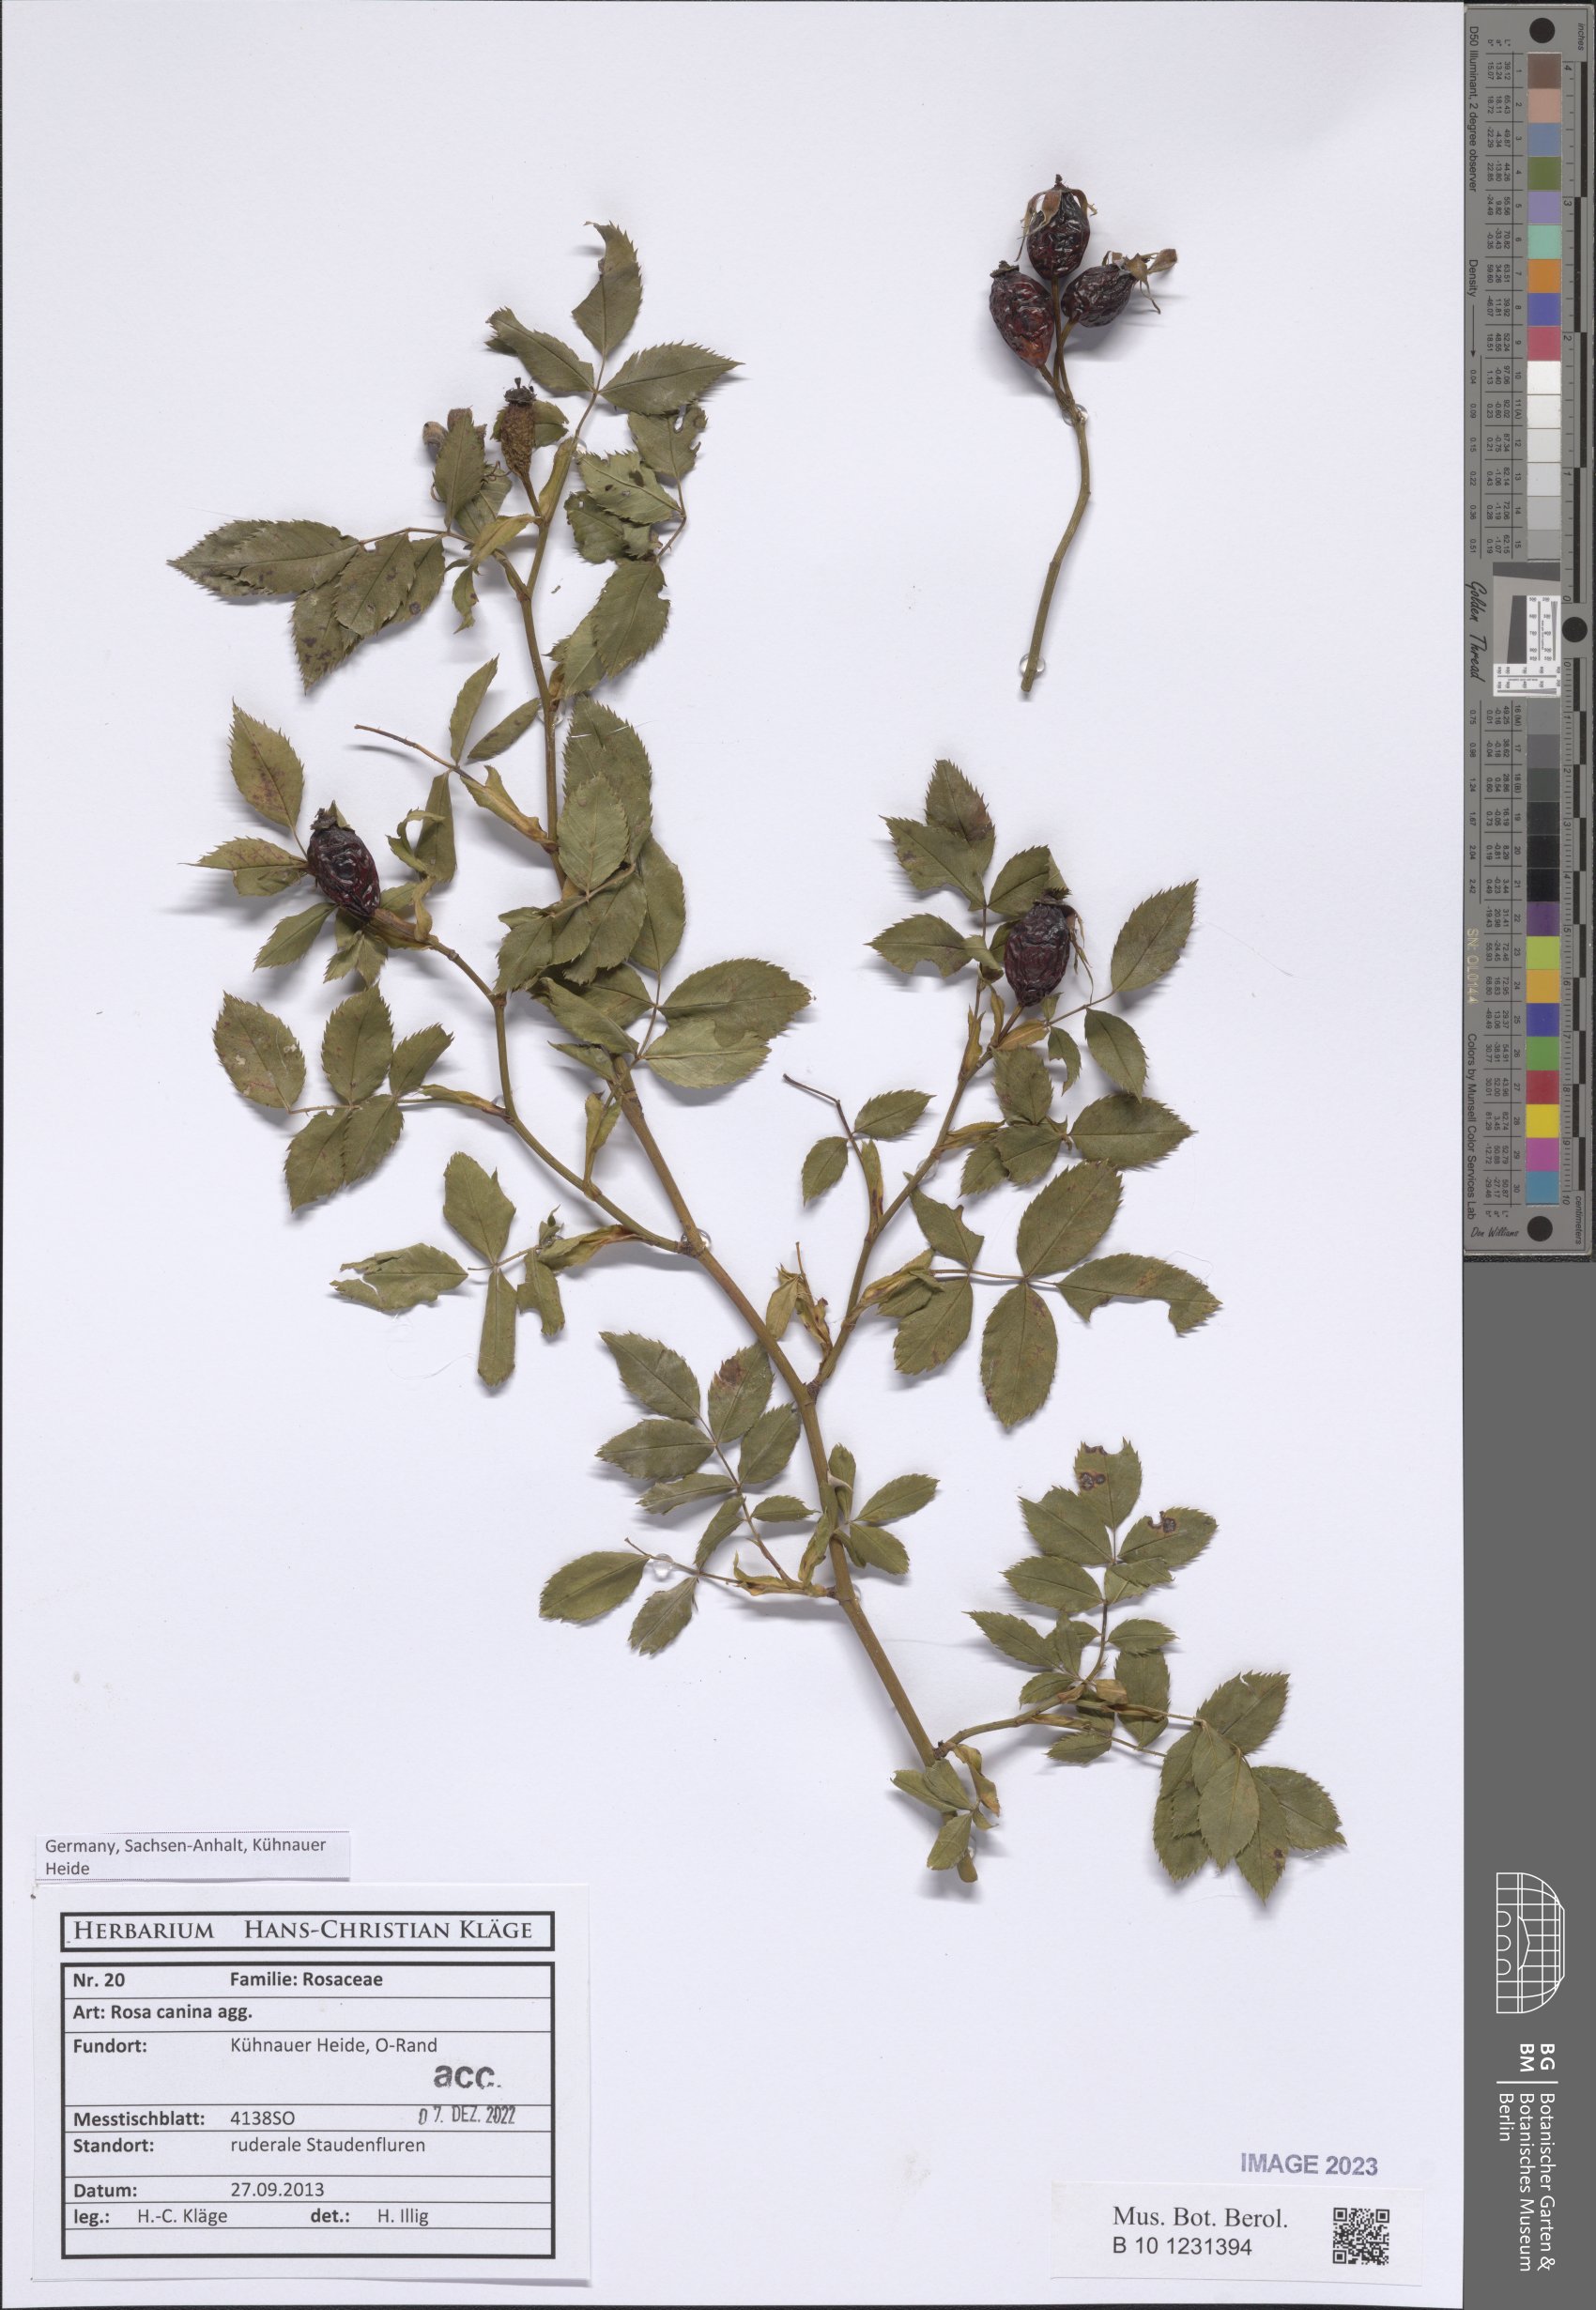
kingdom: Plantae
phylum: Tracheophyta
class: Magnoliopsida
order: Rosales
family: Rosaceae
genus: Rosa
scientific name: Rosa canina
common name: Dog rose
